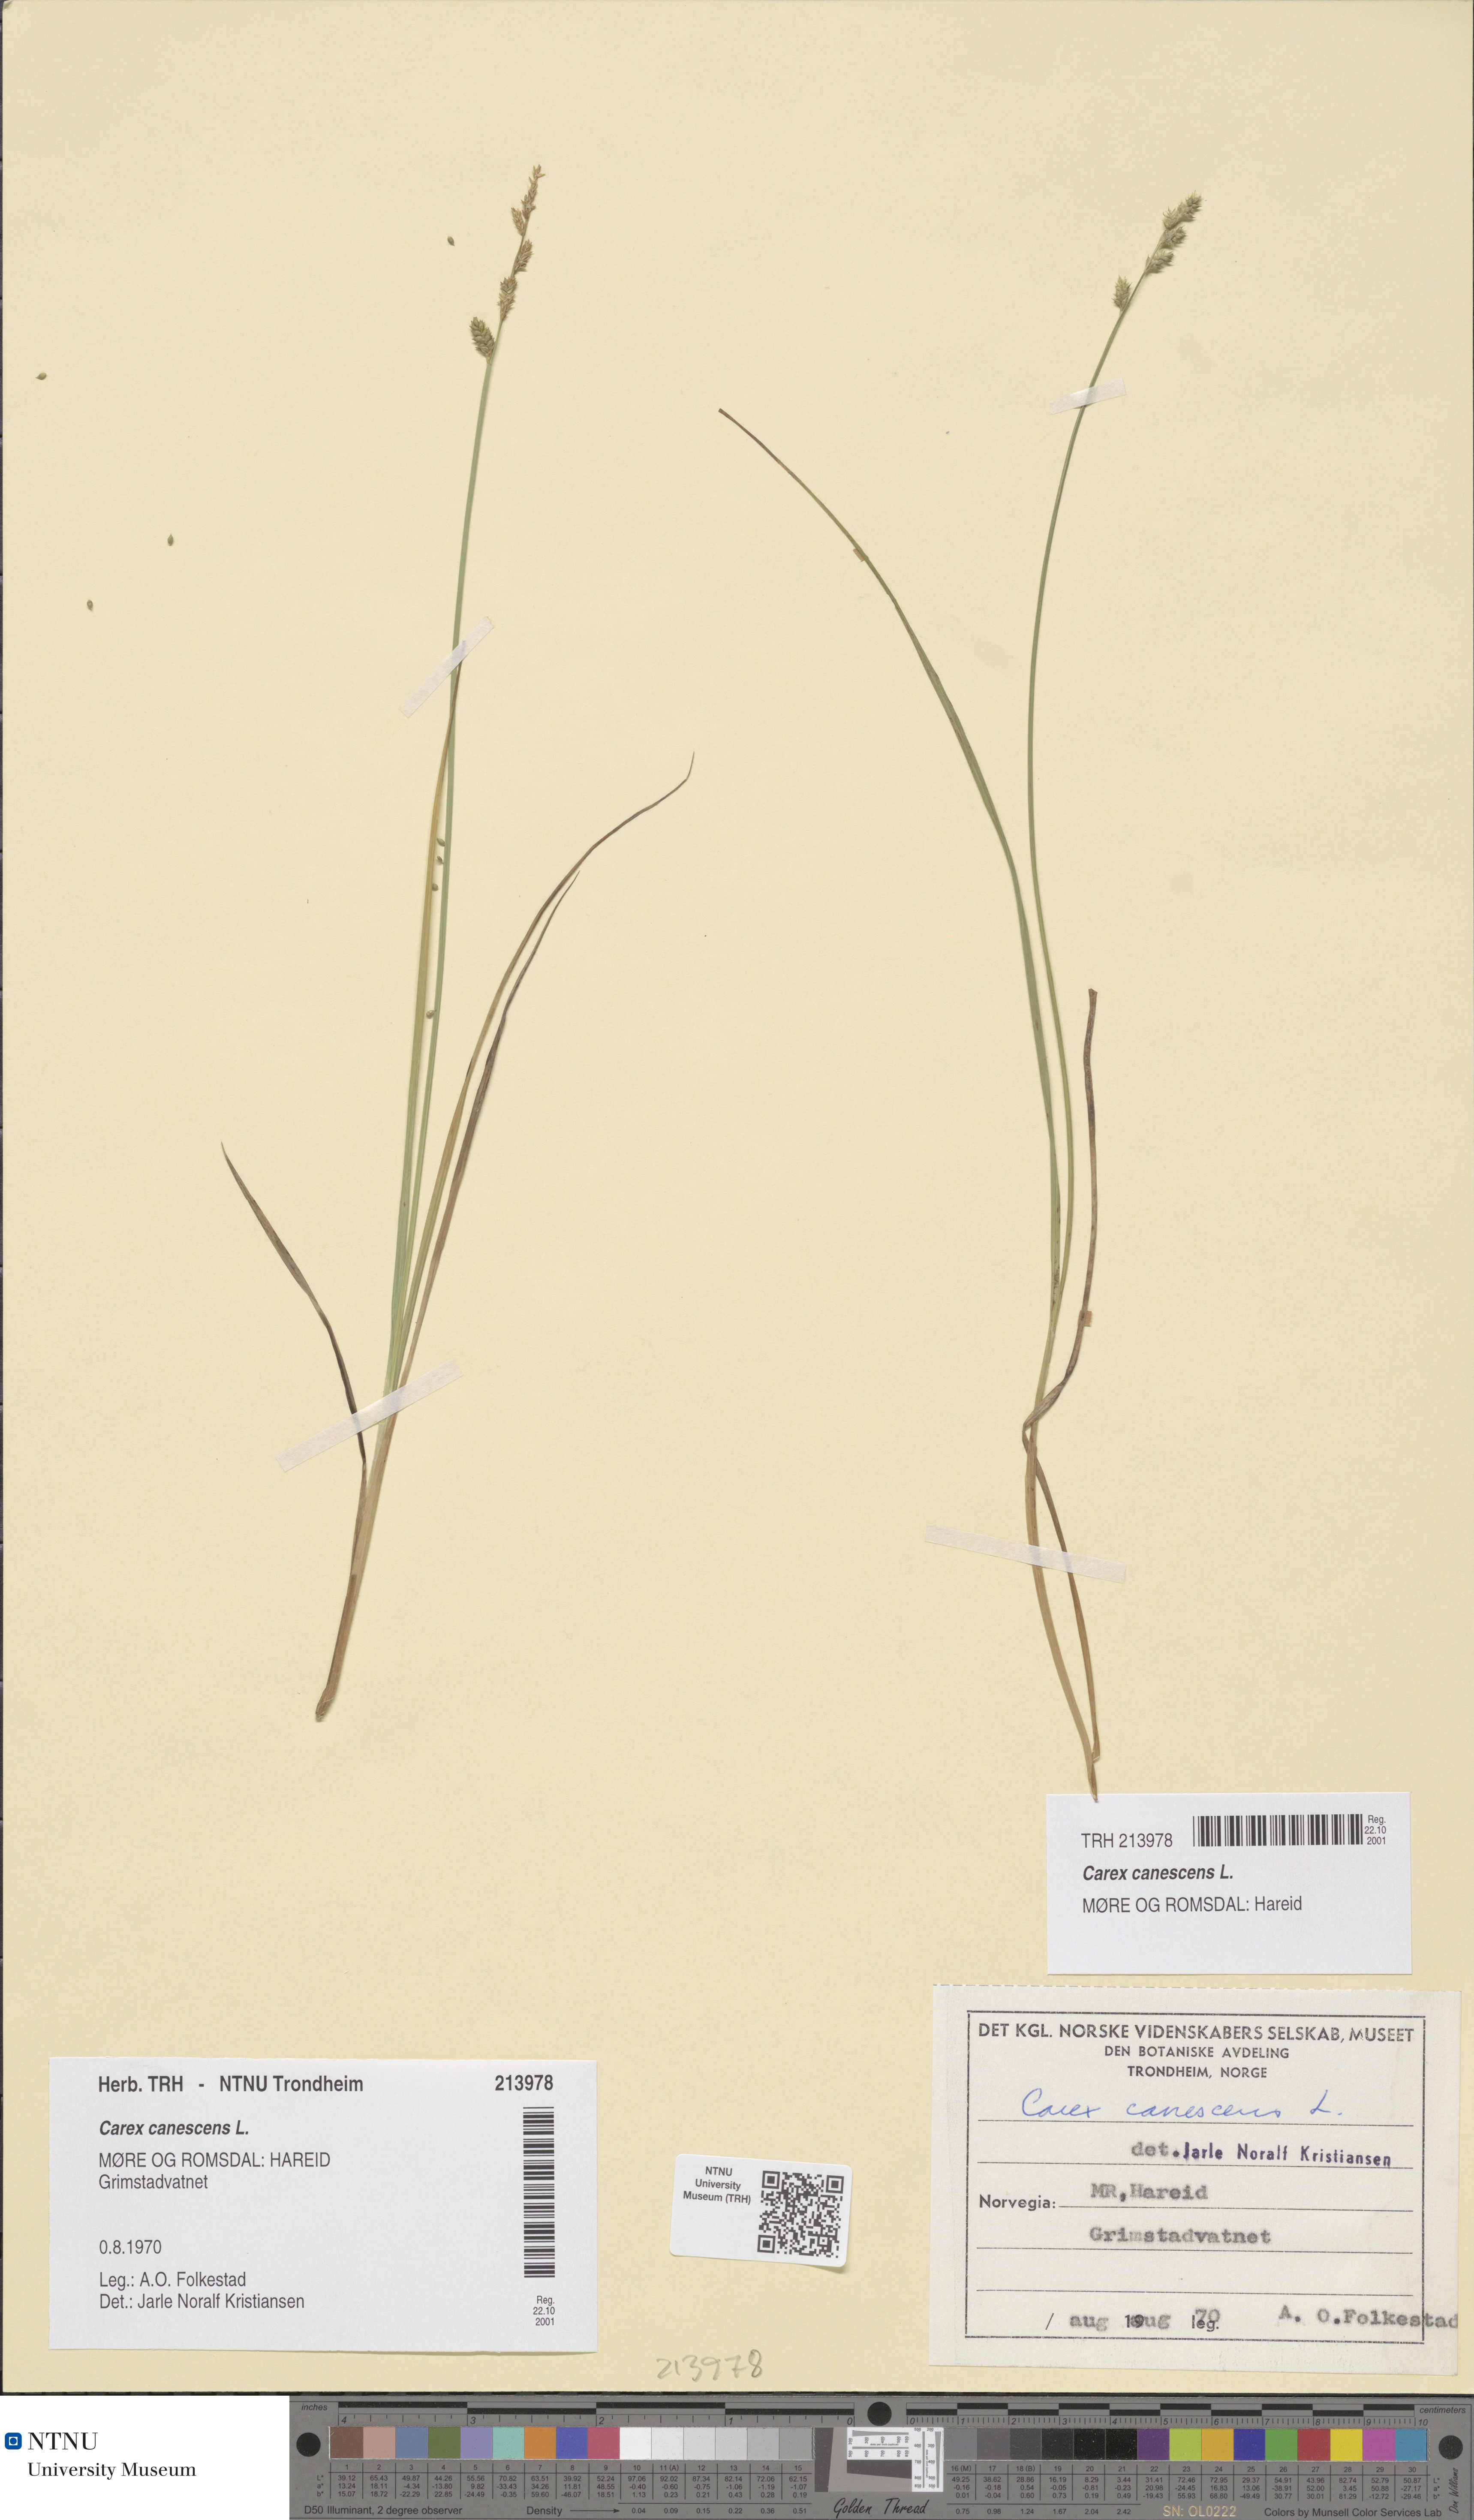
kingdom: Plantae
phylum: Tracheophyta
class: Liliopsida
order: Poales
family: Cyperaceae
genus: Carex
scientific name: Carex canescens
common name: White sedge
